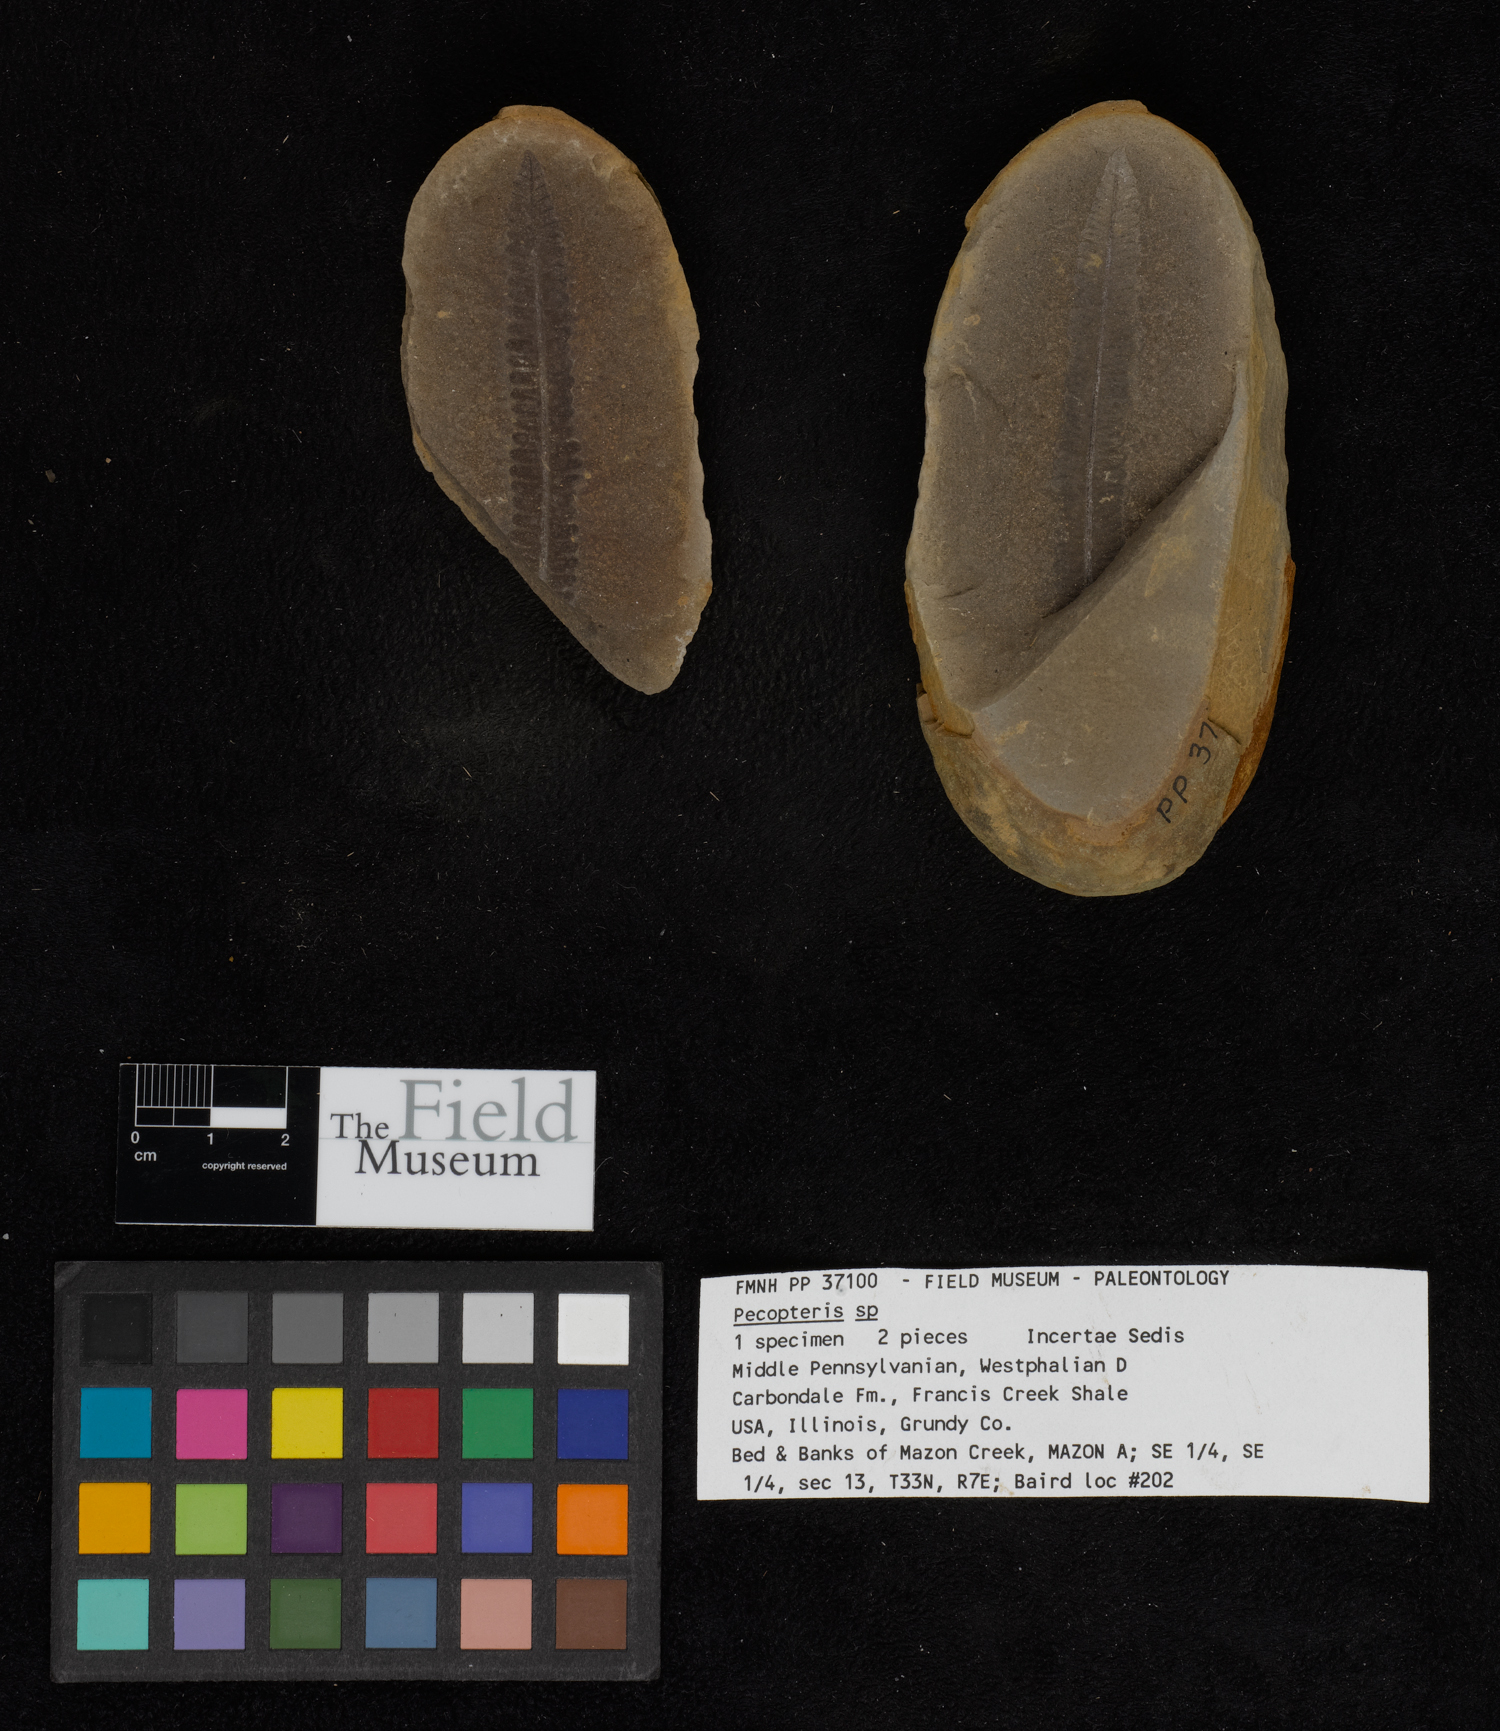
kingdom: Plantae
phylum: Tracheophyta
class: Polypodiopsida
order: Marattiales
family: Asterothecaceae
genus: Pecopteris
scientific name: Pecopteris
